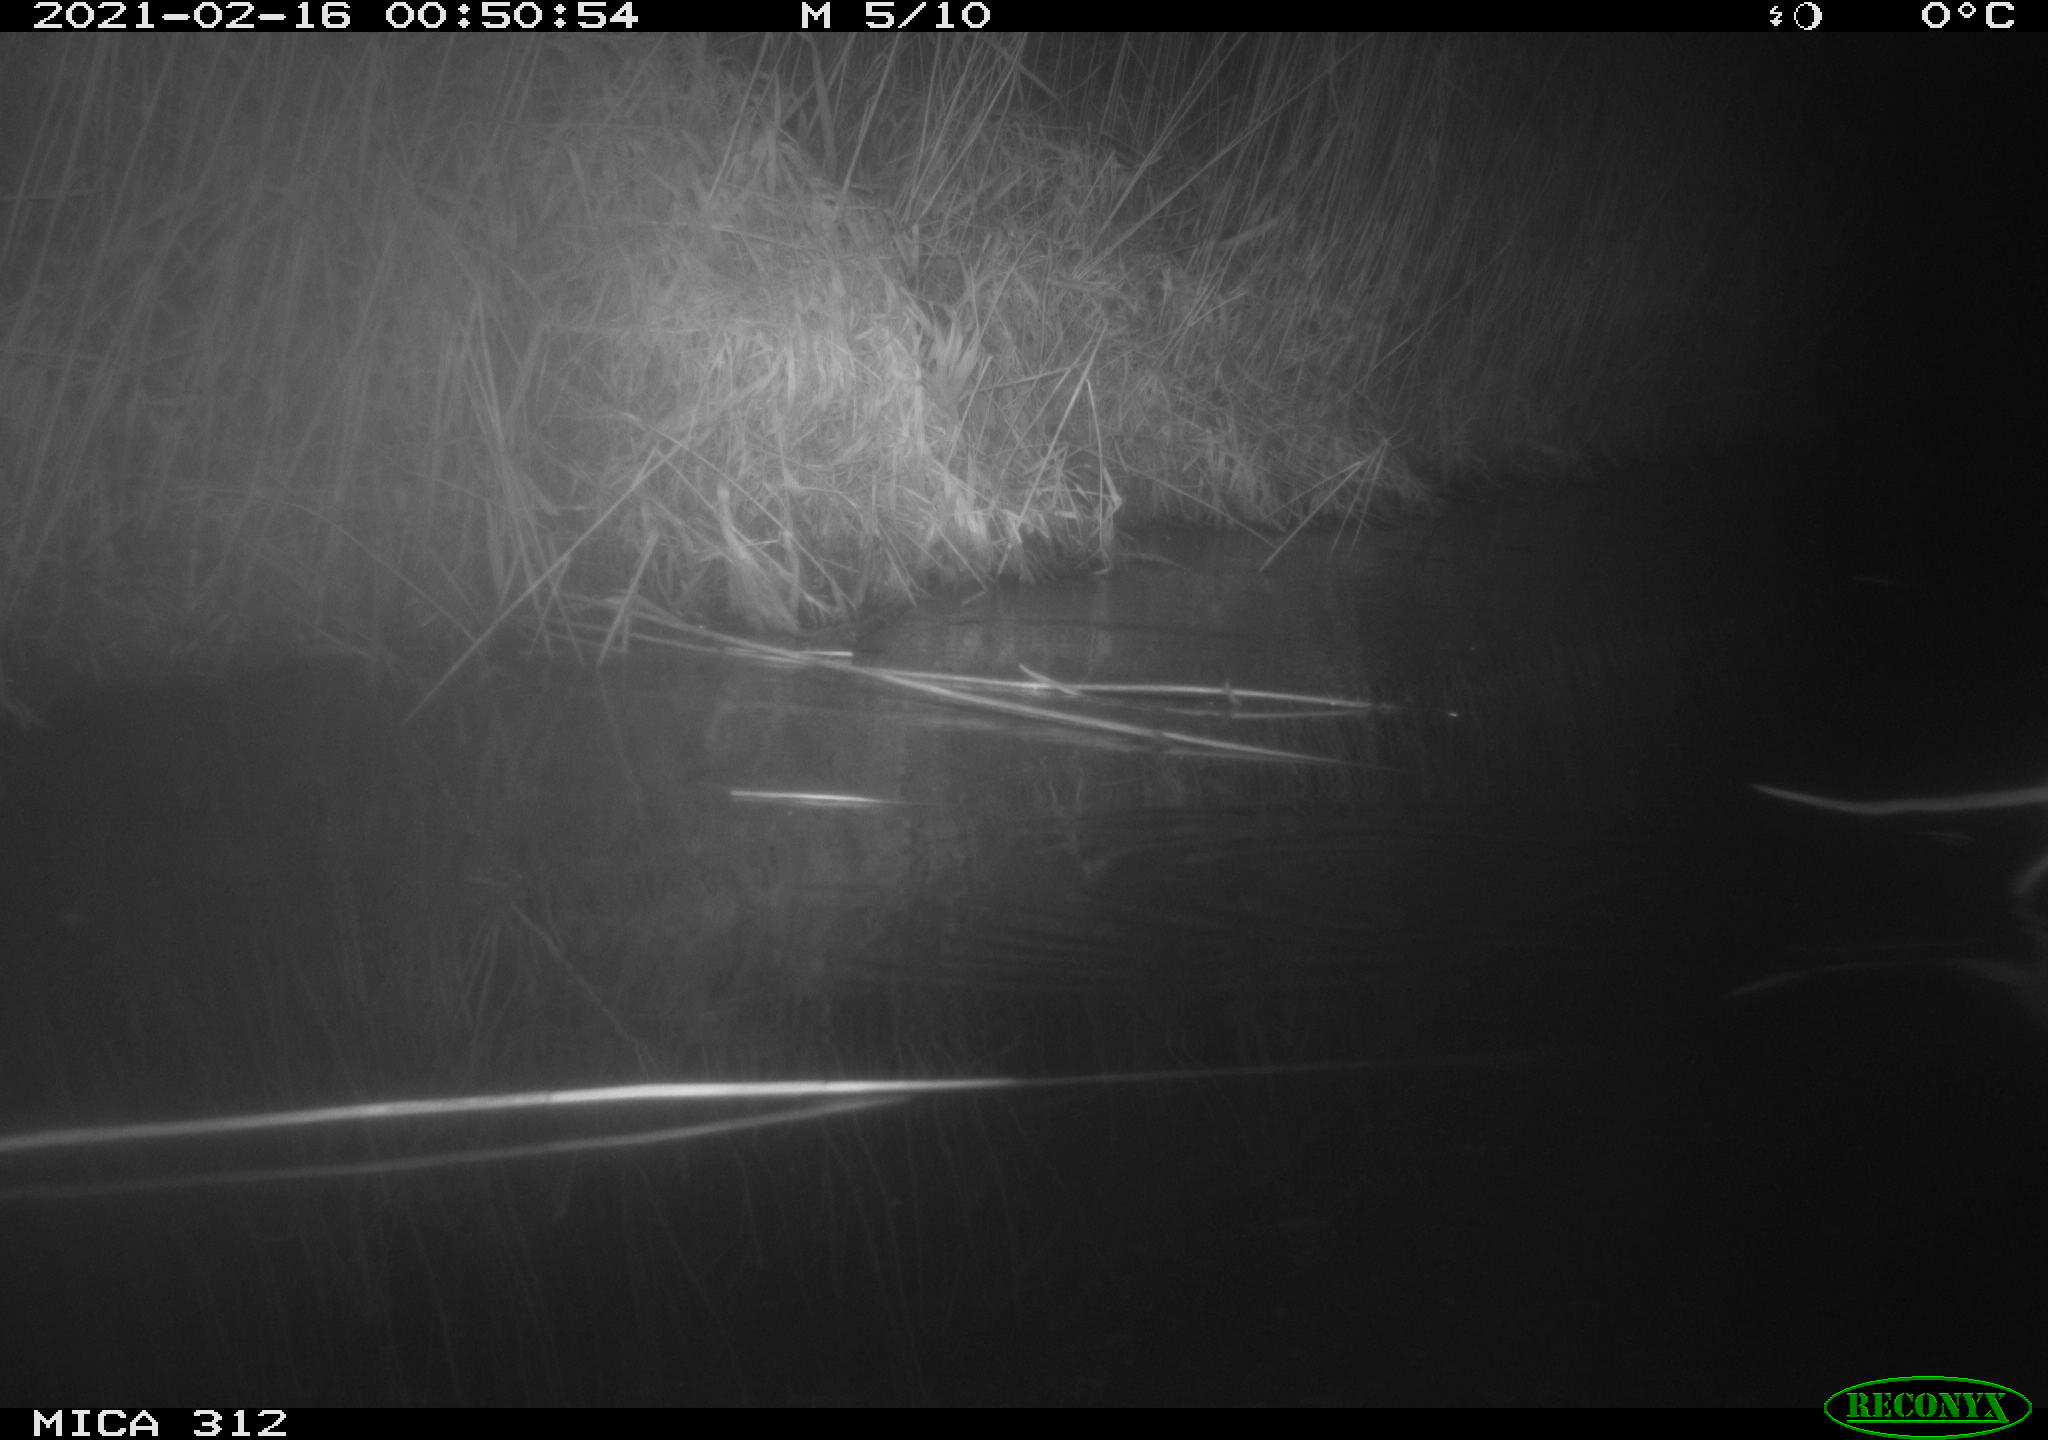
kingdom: Animalia
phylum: Chordata
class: Mammalia
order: Rodentia
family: Muridae
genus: Rattus
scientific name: Rattus norvegicus
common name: Brown rat
